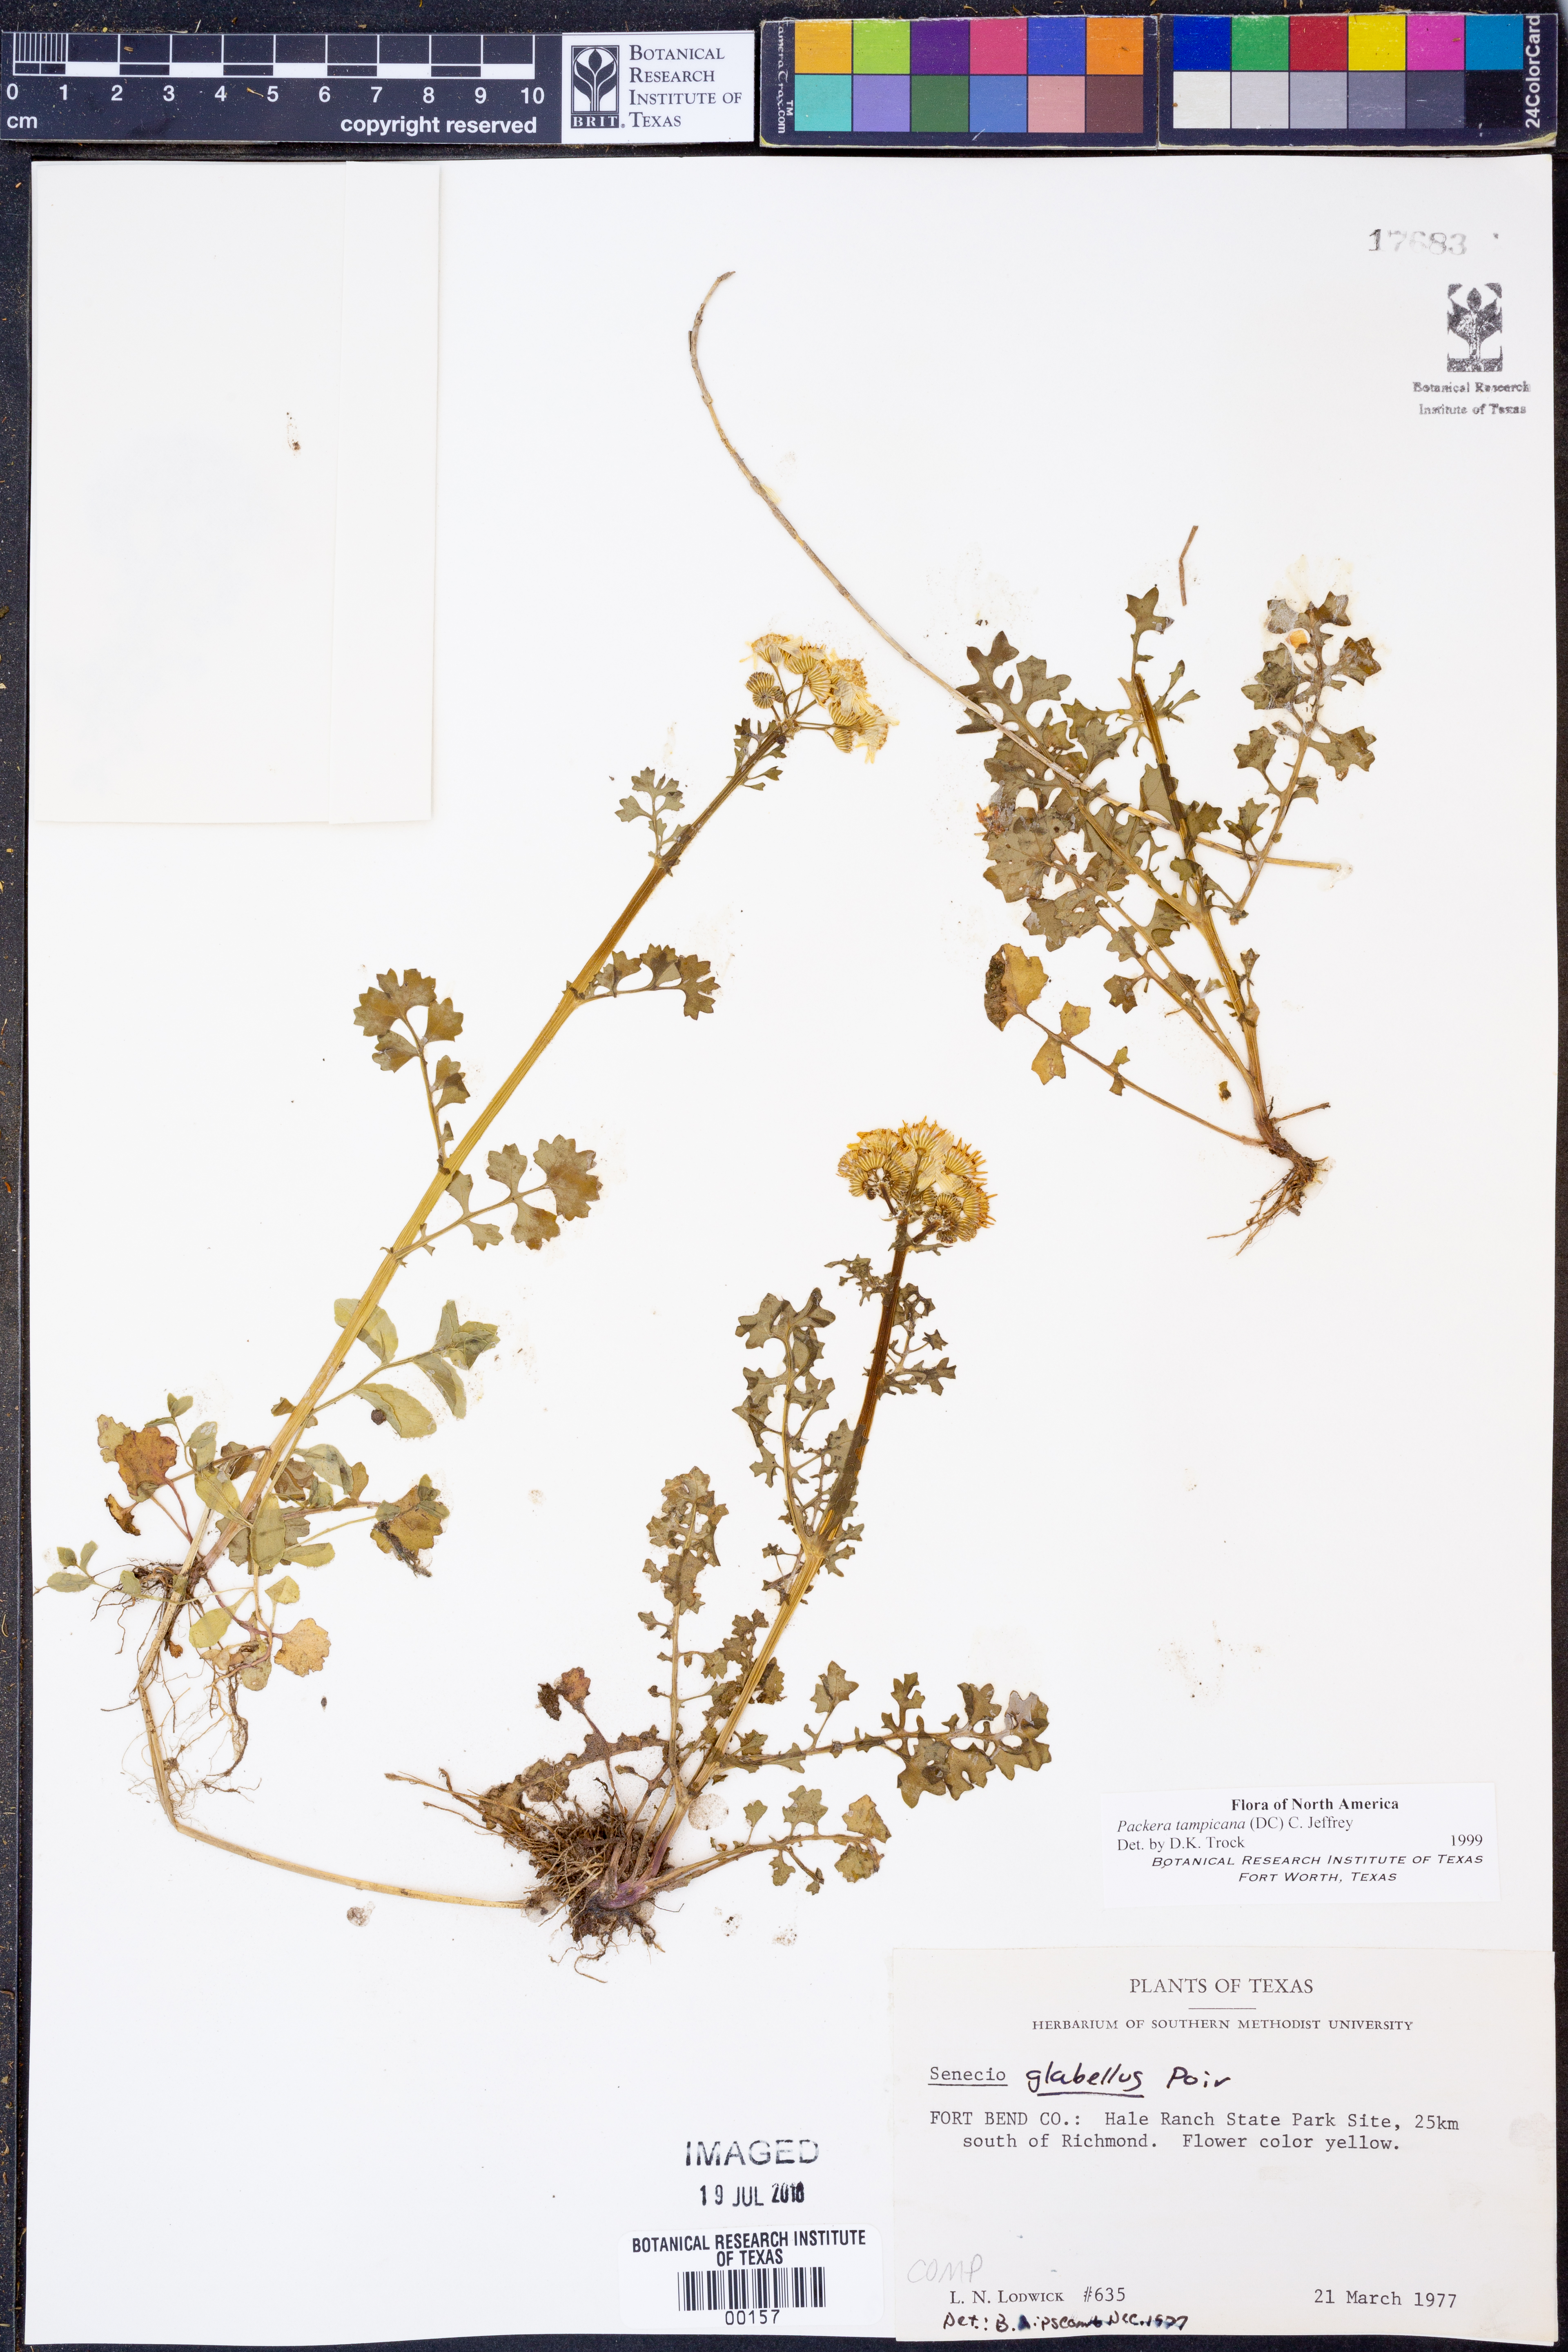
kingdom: Plantae
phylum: Tracheophyta
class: Magnoliopsida
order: Asterales
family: Asteraceae
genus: Packera
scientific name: Packera tampicana
